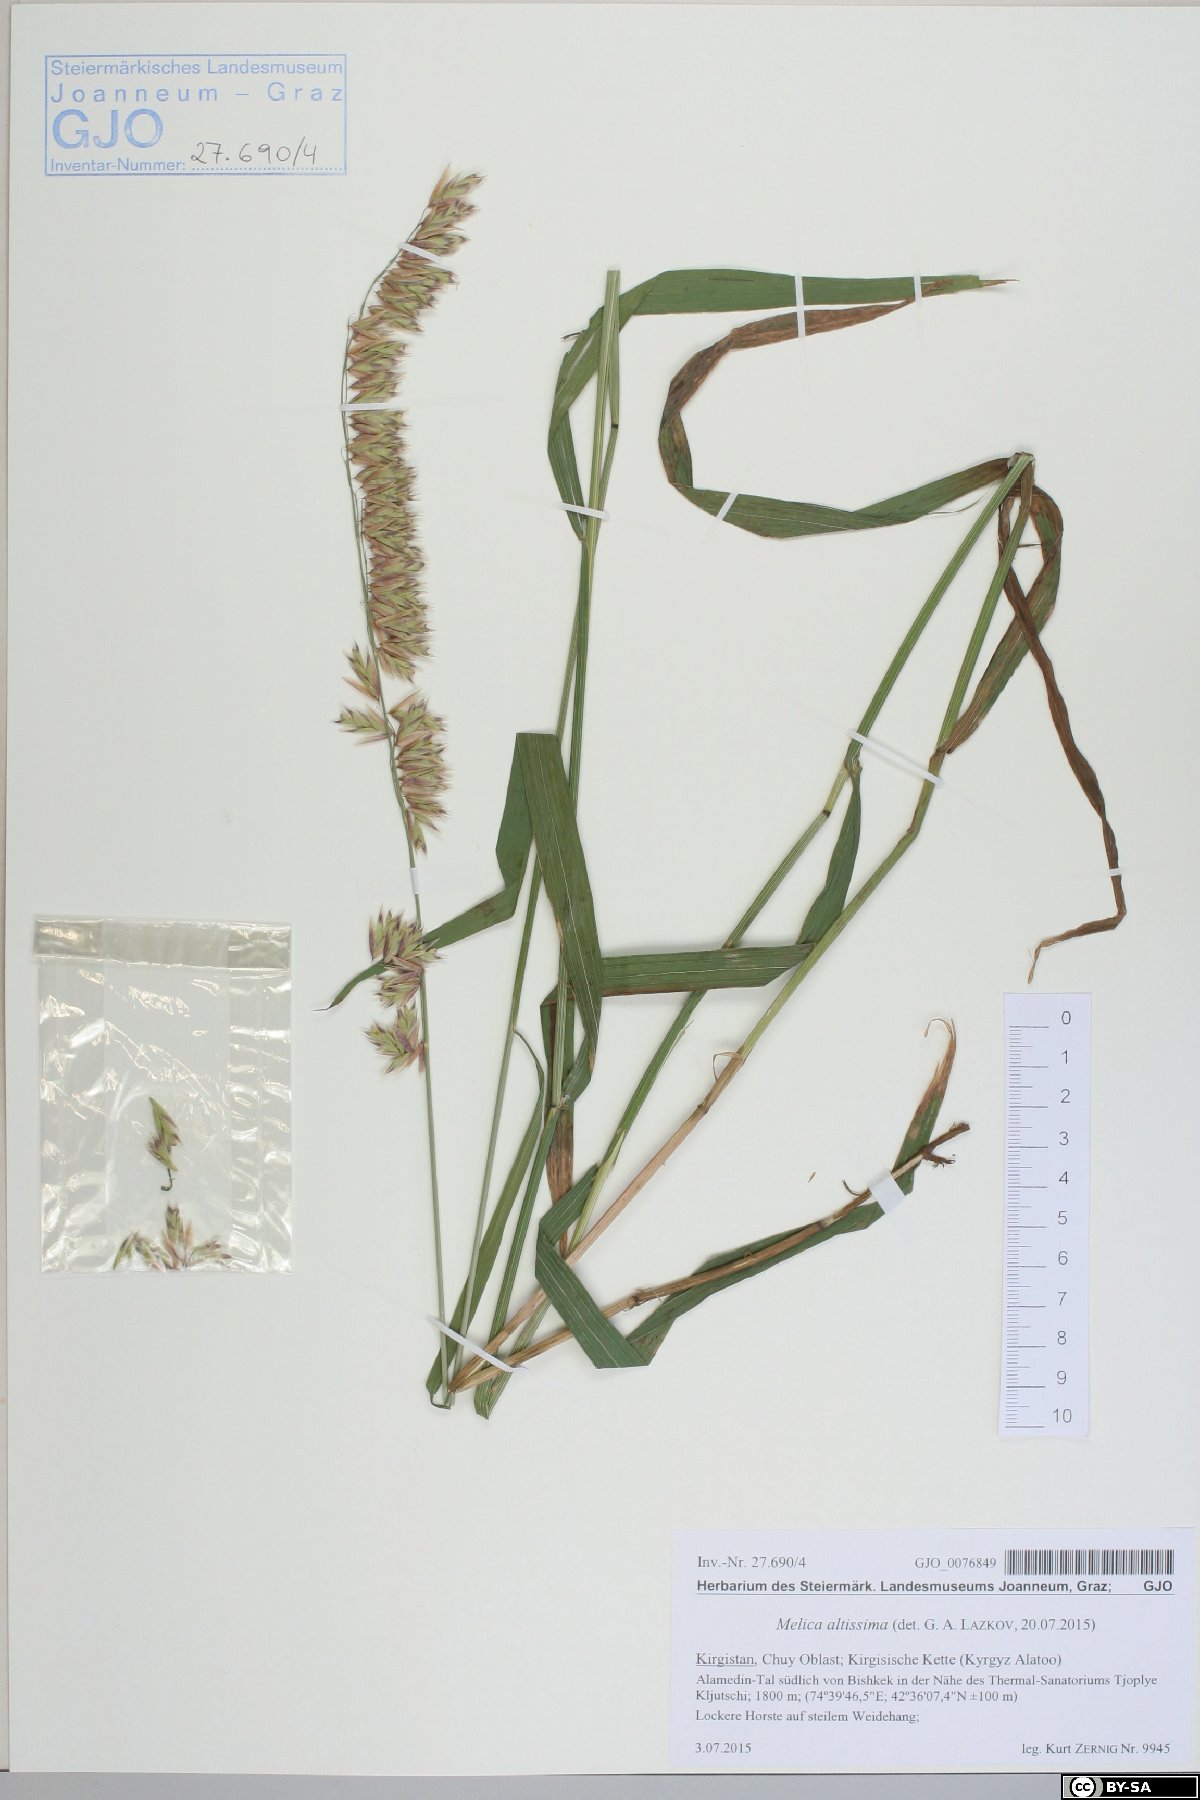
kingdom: Plantae
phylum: Tracheophyta
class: Liliopsida
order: Poales
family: Poaceae
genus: Melica
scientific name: Melica altissima
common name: Siberian melicgrass
